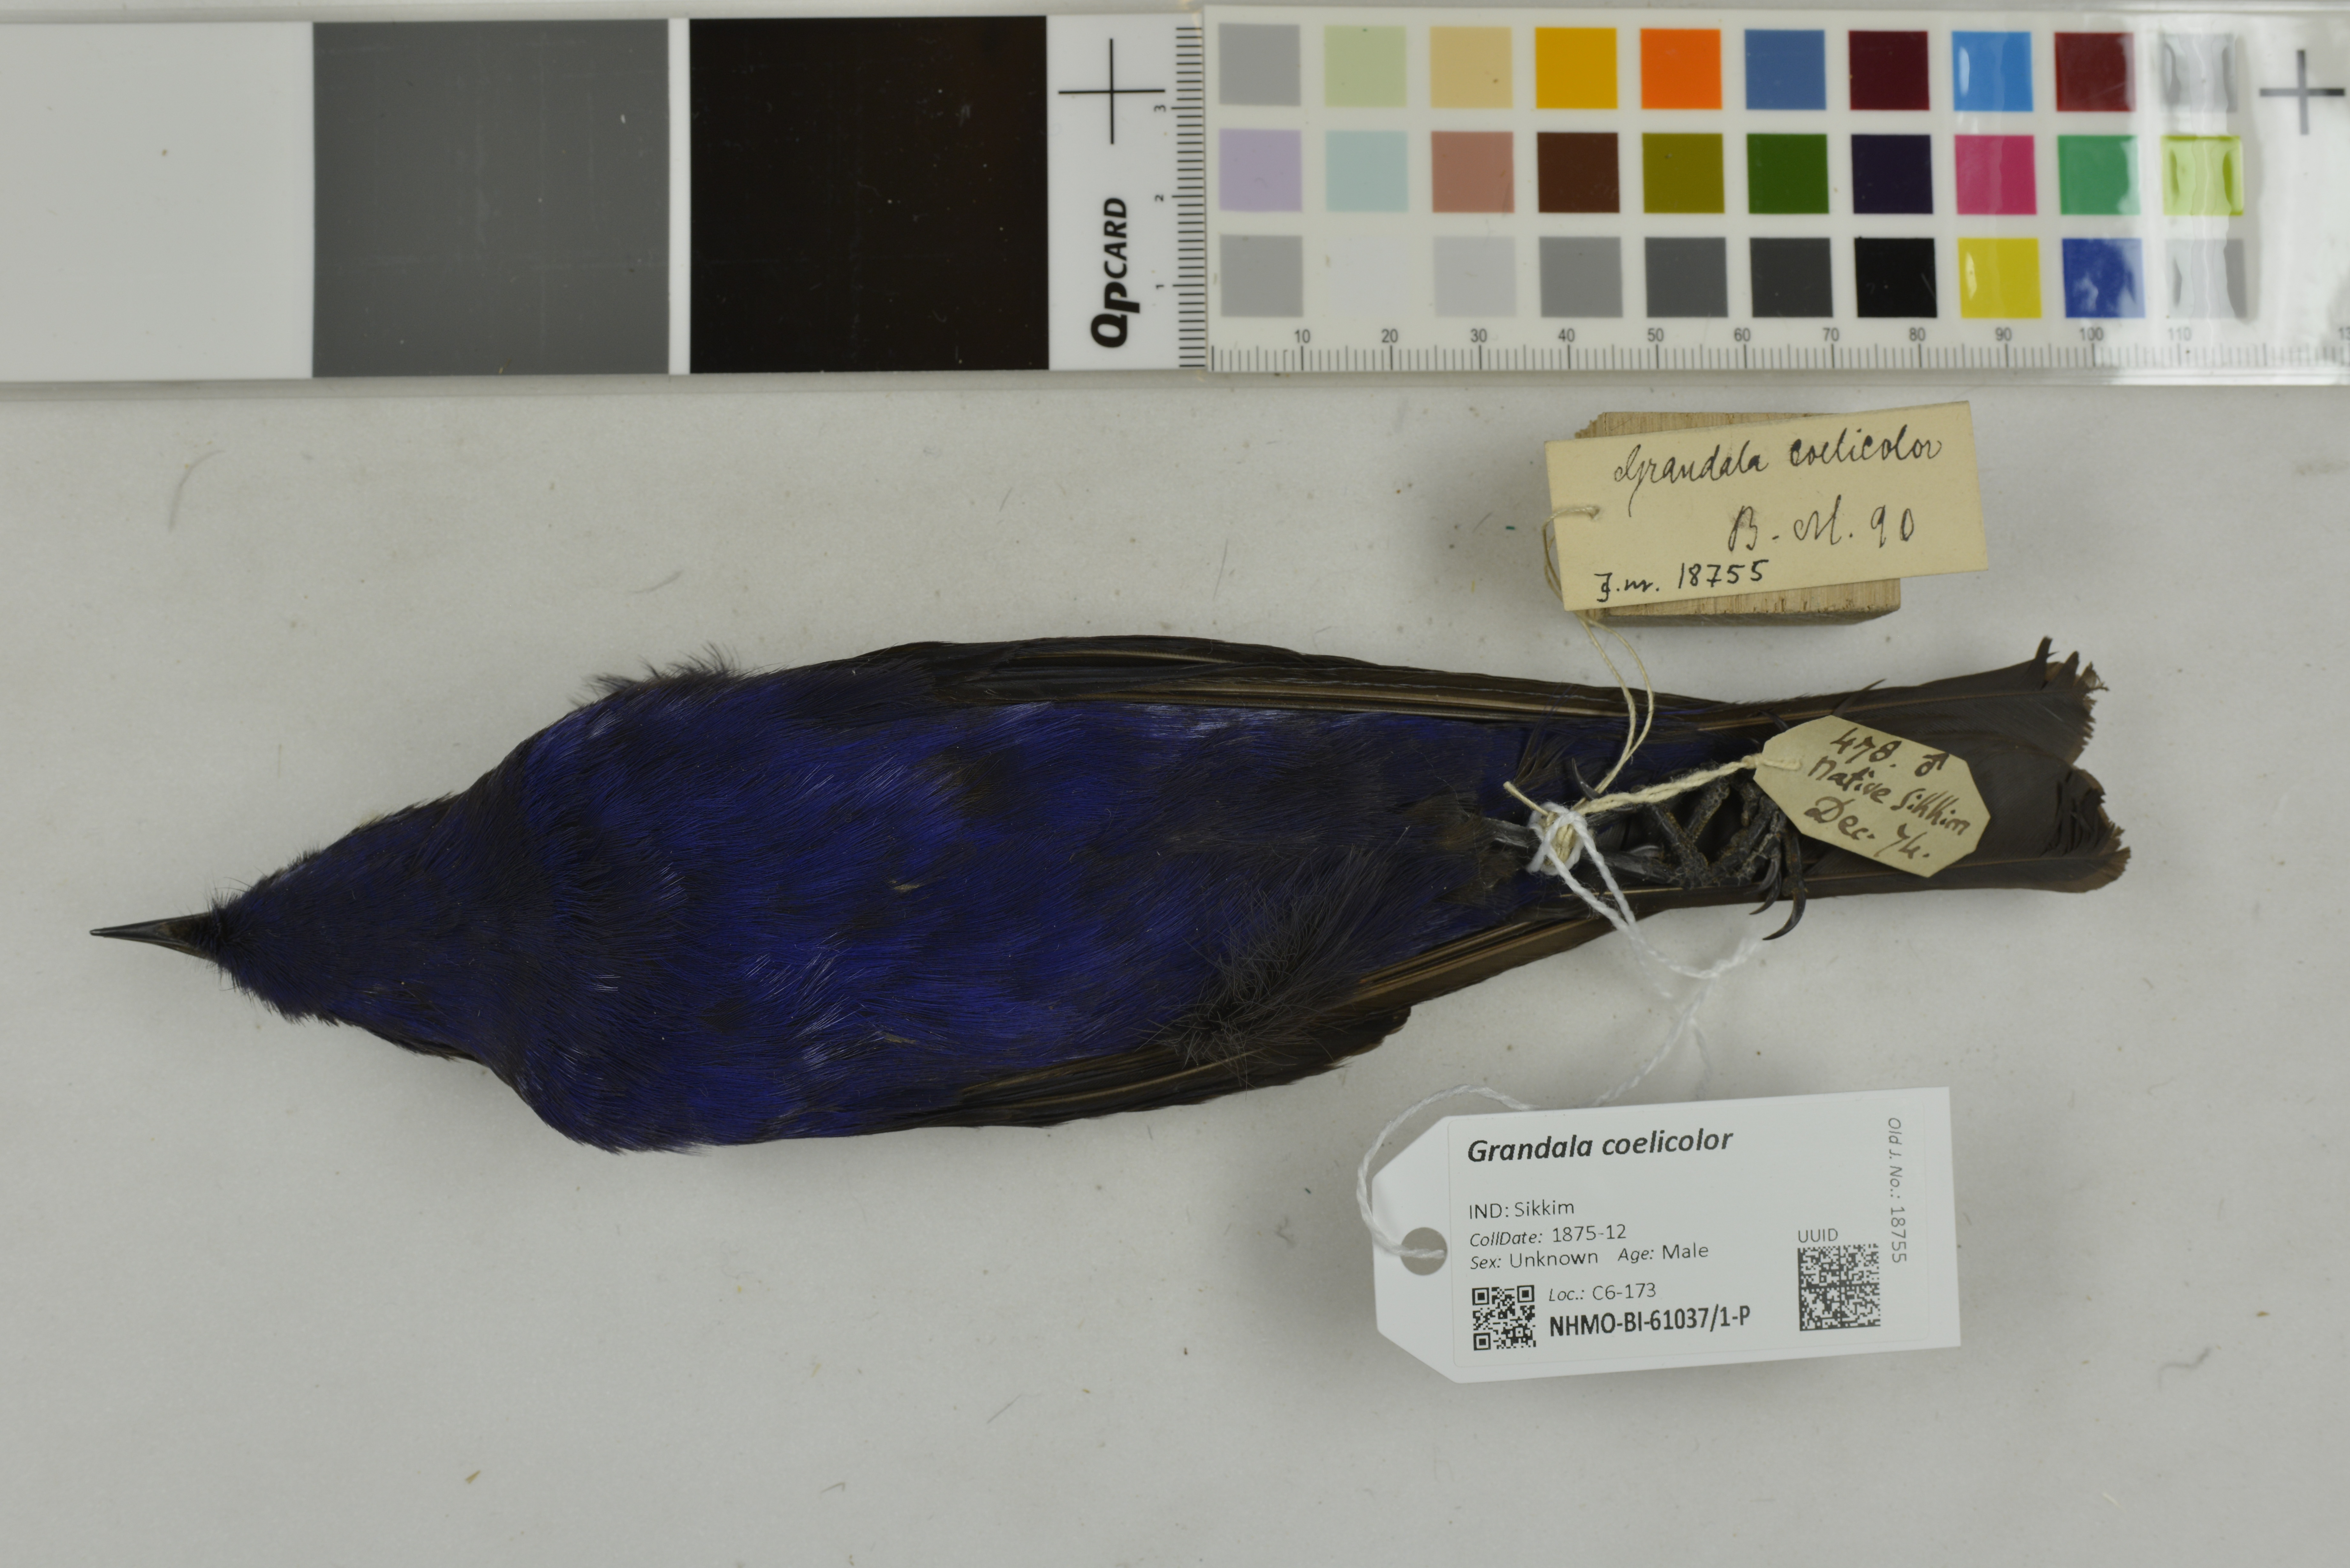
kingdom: Animalia
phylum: Chordata
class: Aves
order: Passeriformes
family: Muscicapidae
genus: Grandala
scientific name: Grandala coelicolor
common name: Grandala
